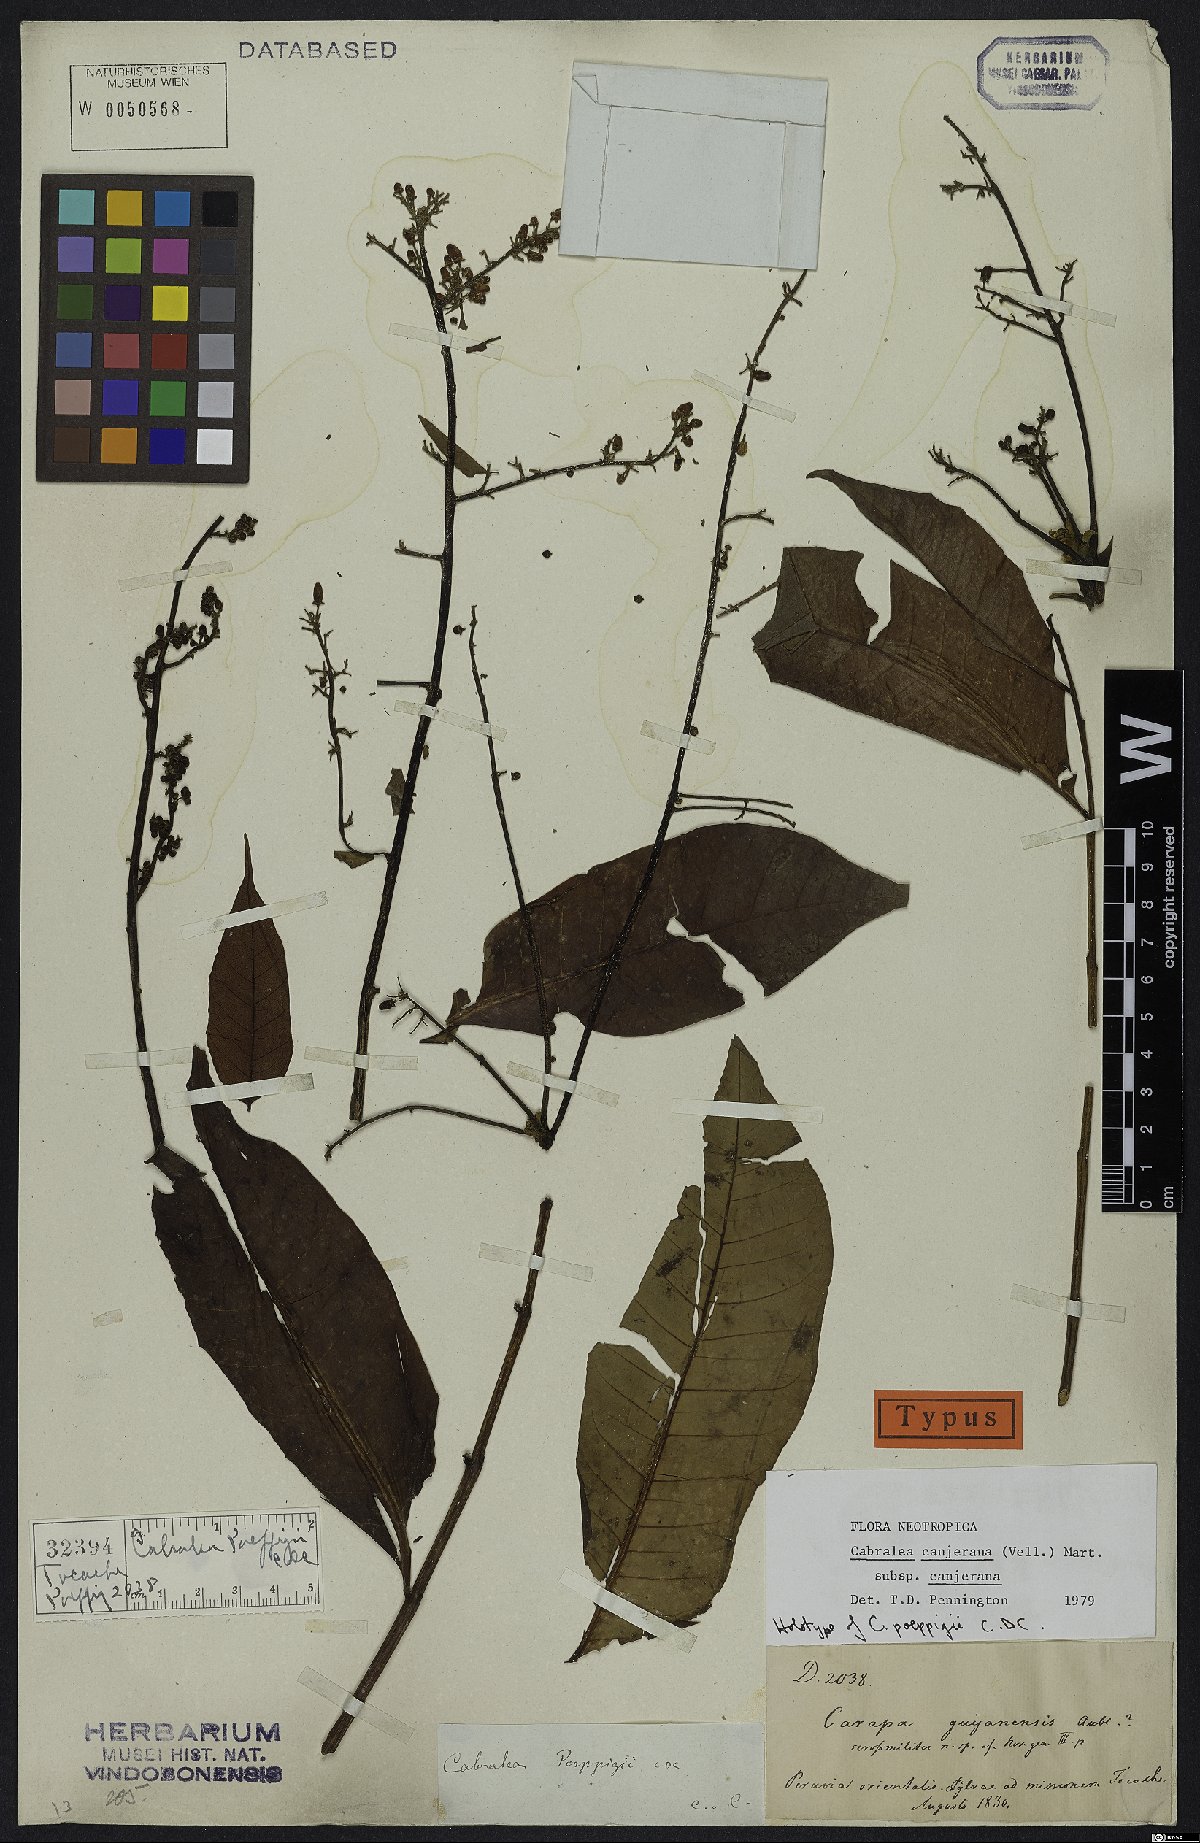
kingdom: Plantae
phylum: Tracheophyta
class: Magnoliopsida
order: Sapindales
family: Meliaceae
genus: Cabralea
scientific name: Cabralea canjerana
